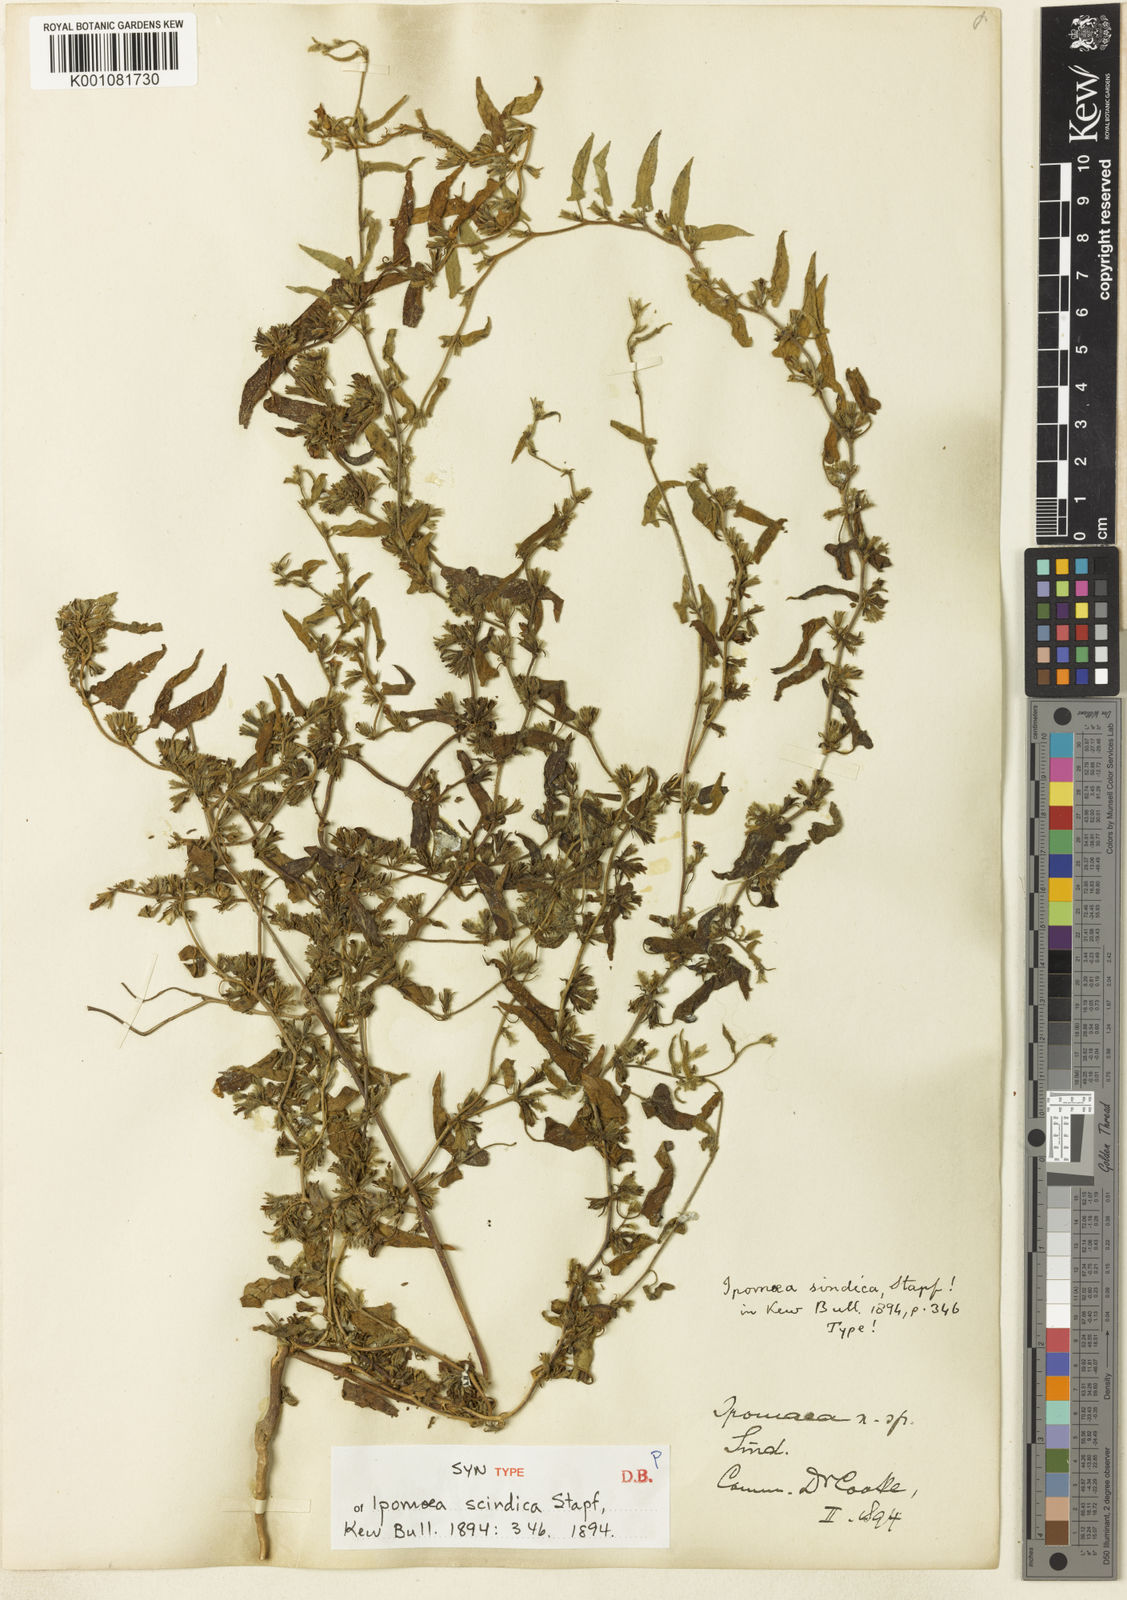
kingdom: Plantae
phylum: Tracheophyta
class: Magnoliopsida
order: Solanales
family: Convolvulaceae
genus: Ipomoea
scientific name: Ipomoea eriocarpa
